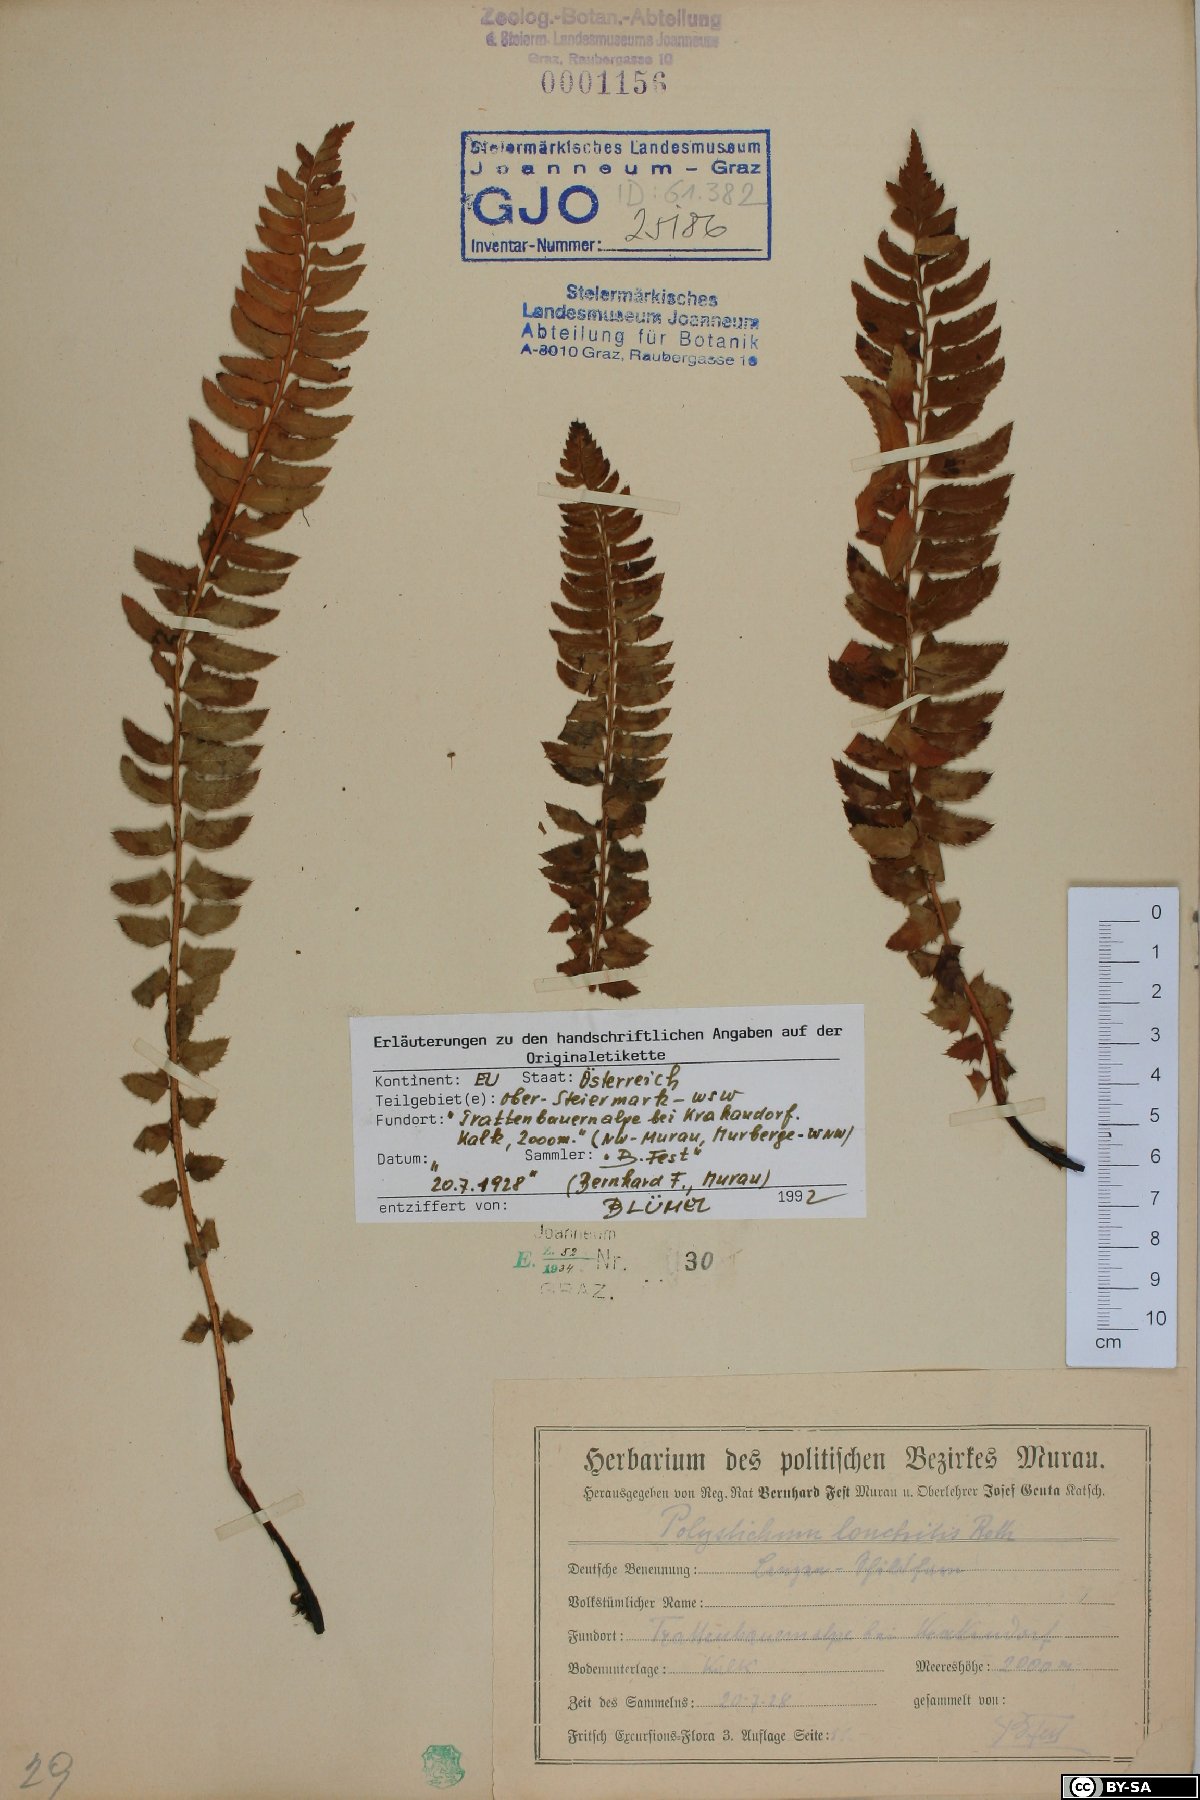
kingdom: Plantae
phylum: Tracheophyta
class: Polypodiopsida
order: Polypodiales
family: Dryopteridaceae
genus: Polystichum
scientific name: Polystichum lonchitis
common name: Holly fern
